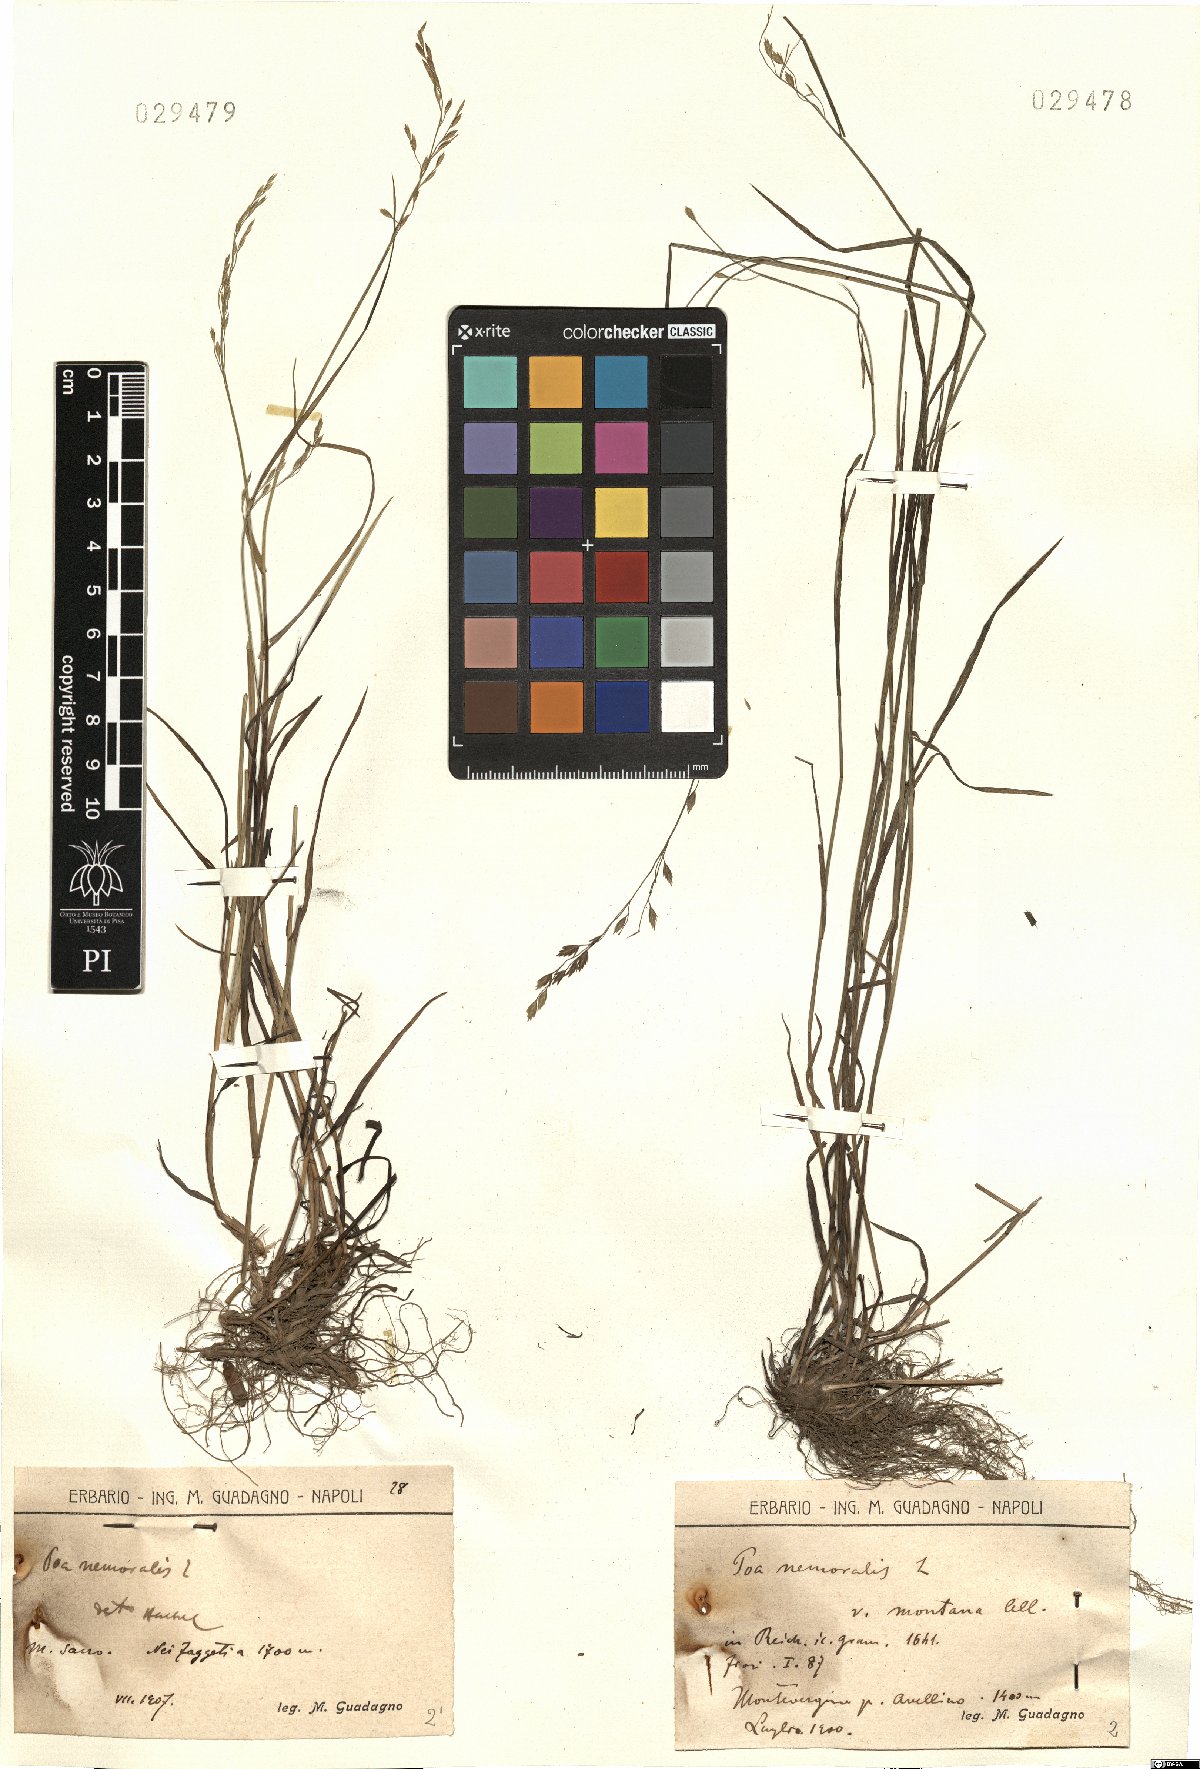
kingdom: Plantae
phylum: Tracheophyta
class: Liliopsida
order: Poales
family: Poaceae
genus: Poa
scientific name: Poa nemoralis
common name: Wood bluegrass
